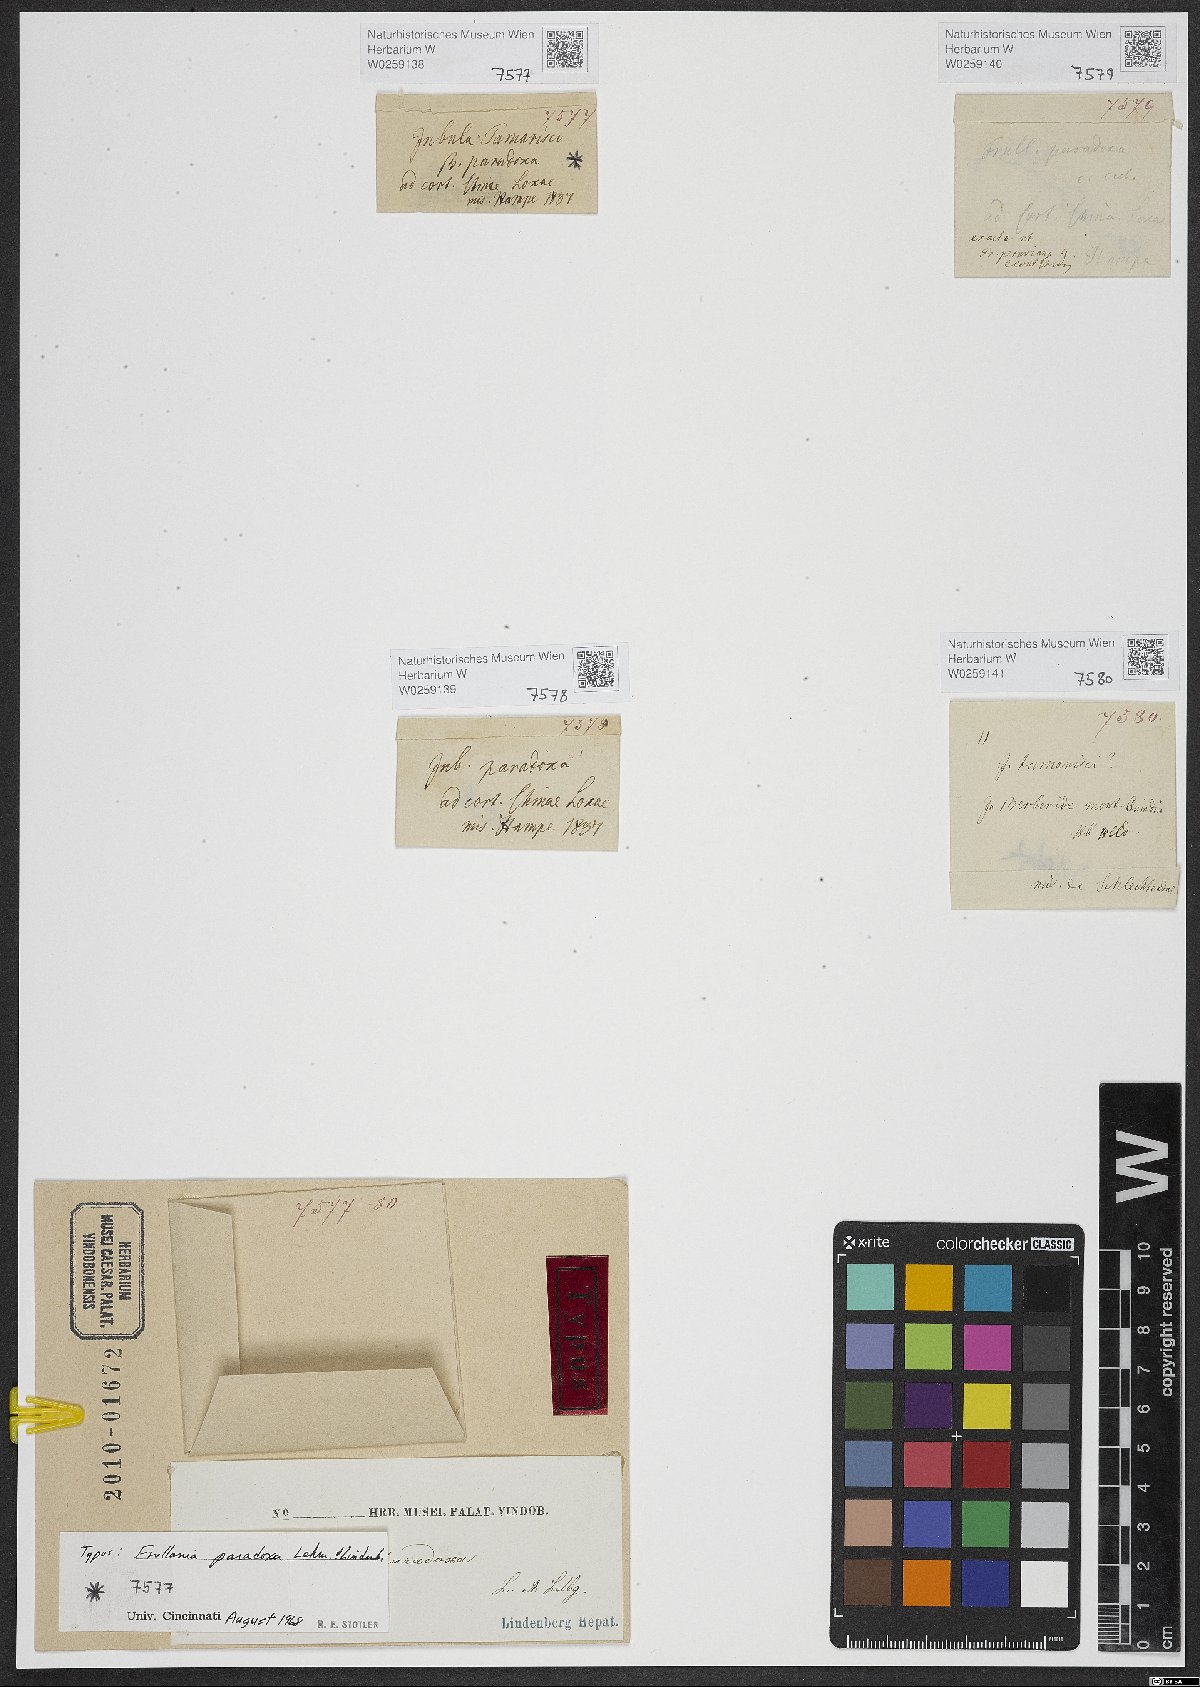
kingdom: Plantae
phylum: Marchantiophyta
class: Jungermanniopsida
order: Porellales
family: Frullaniaceae
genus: Frullania
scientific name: Frullania paradoxa
